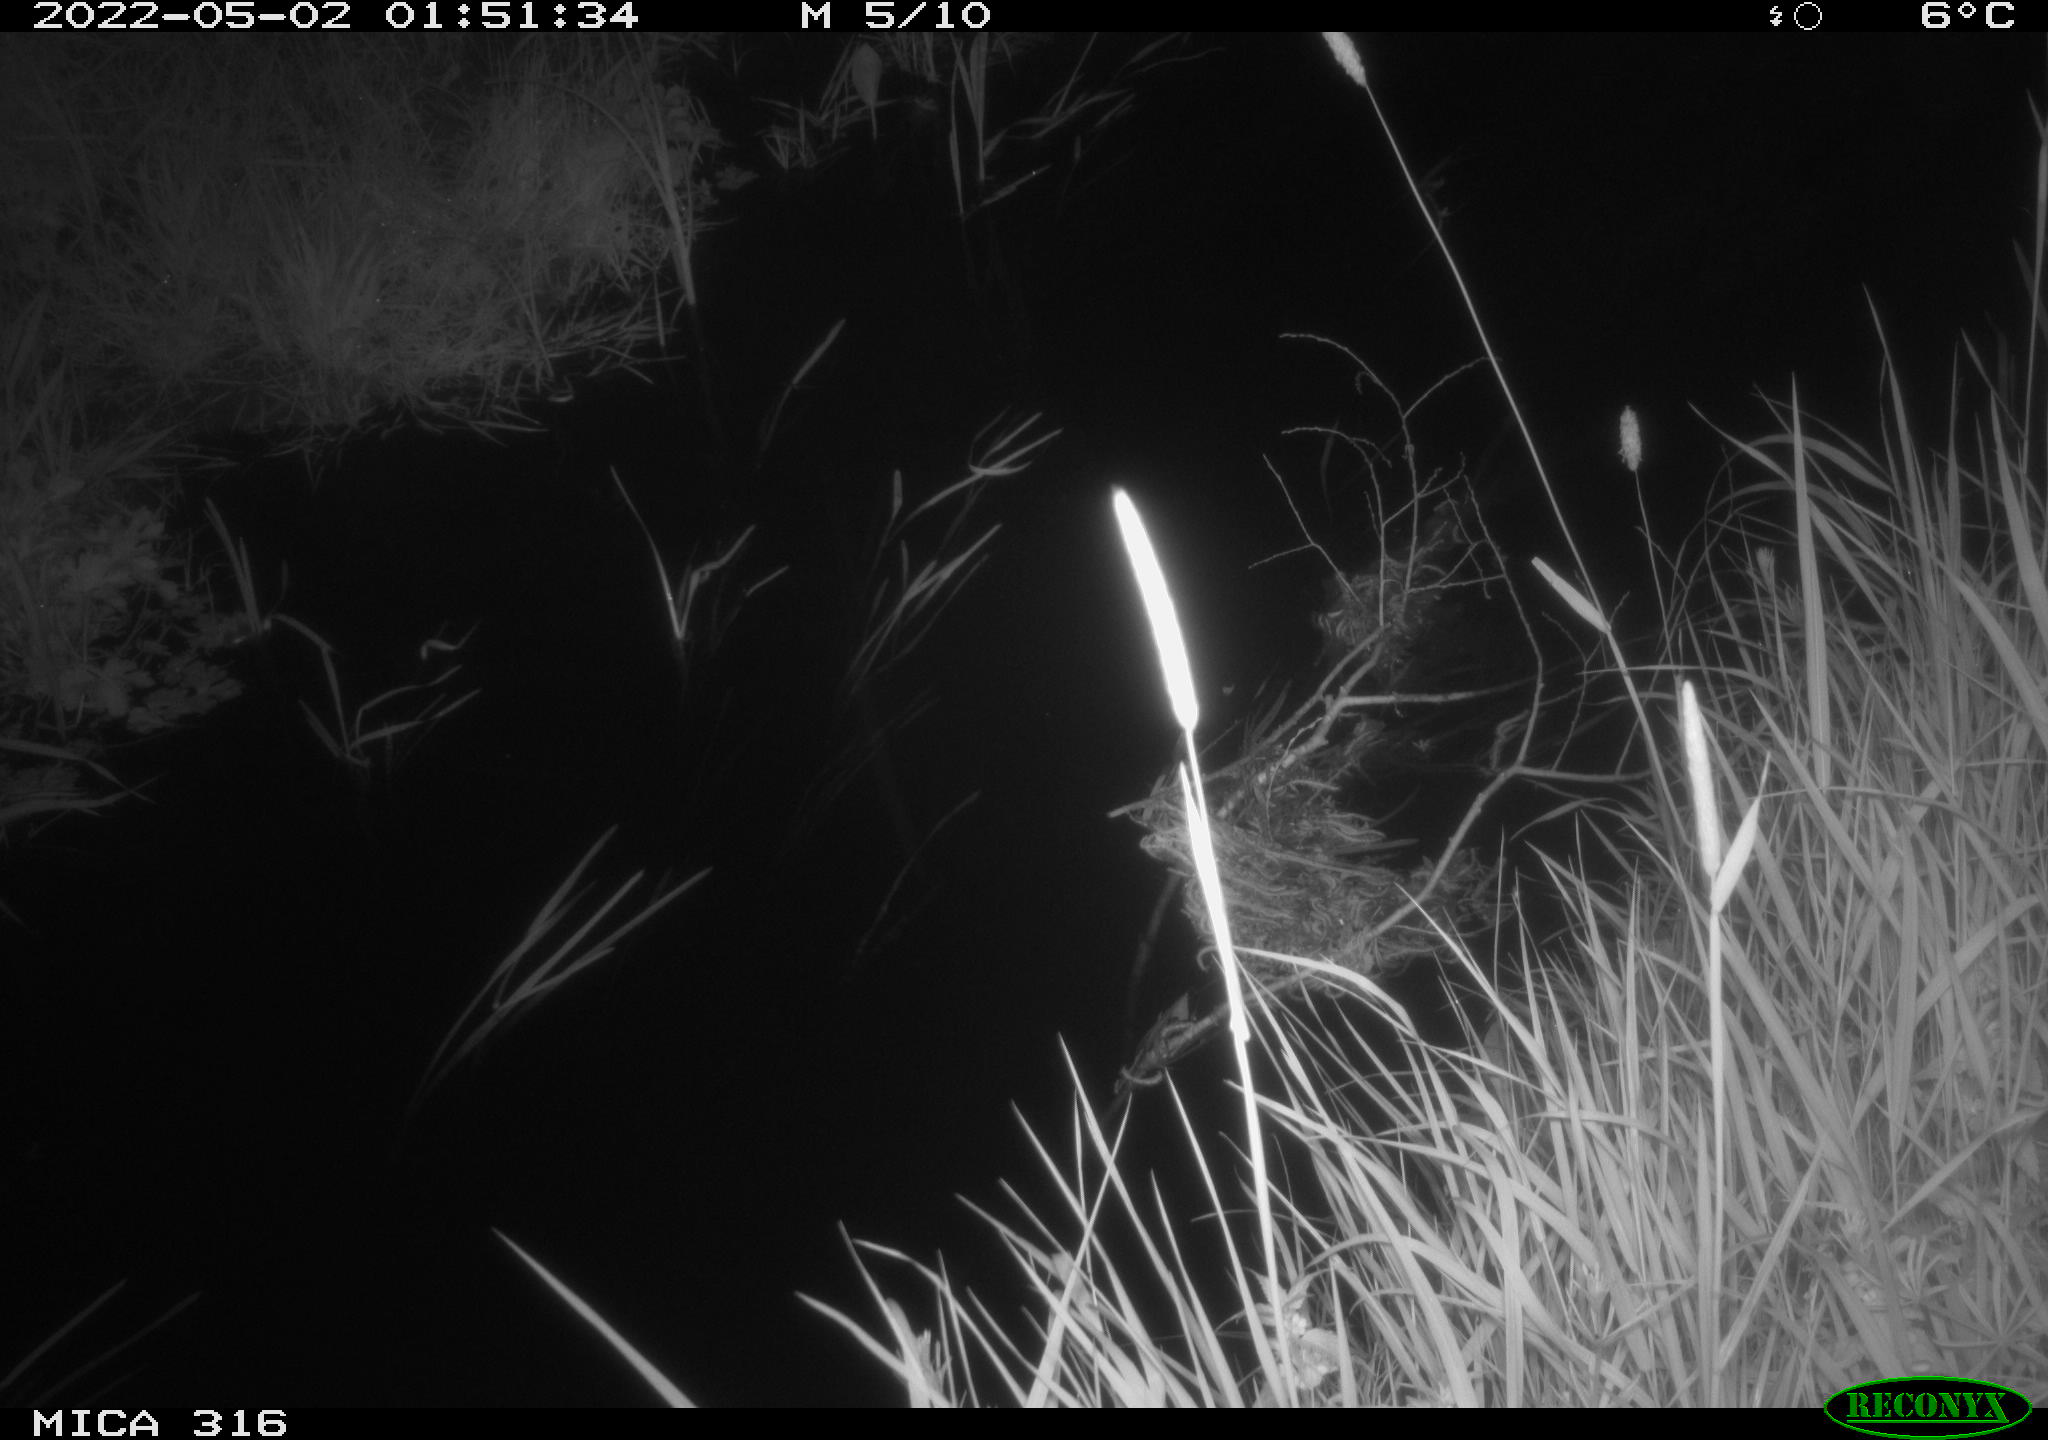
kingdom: Animalia
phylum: Chordata
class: Aves
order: Anseriformes
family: Anatidae
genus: Anas
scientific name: Anas platyrhynchos
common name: Mallard
